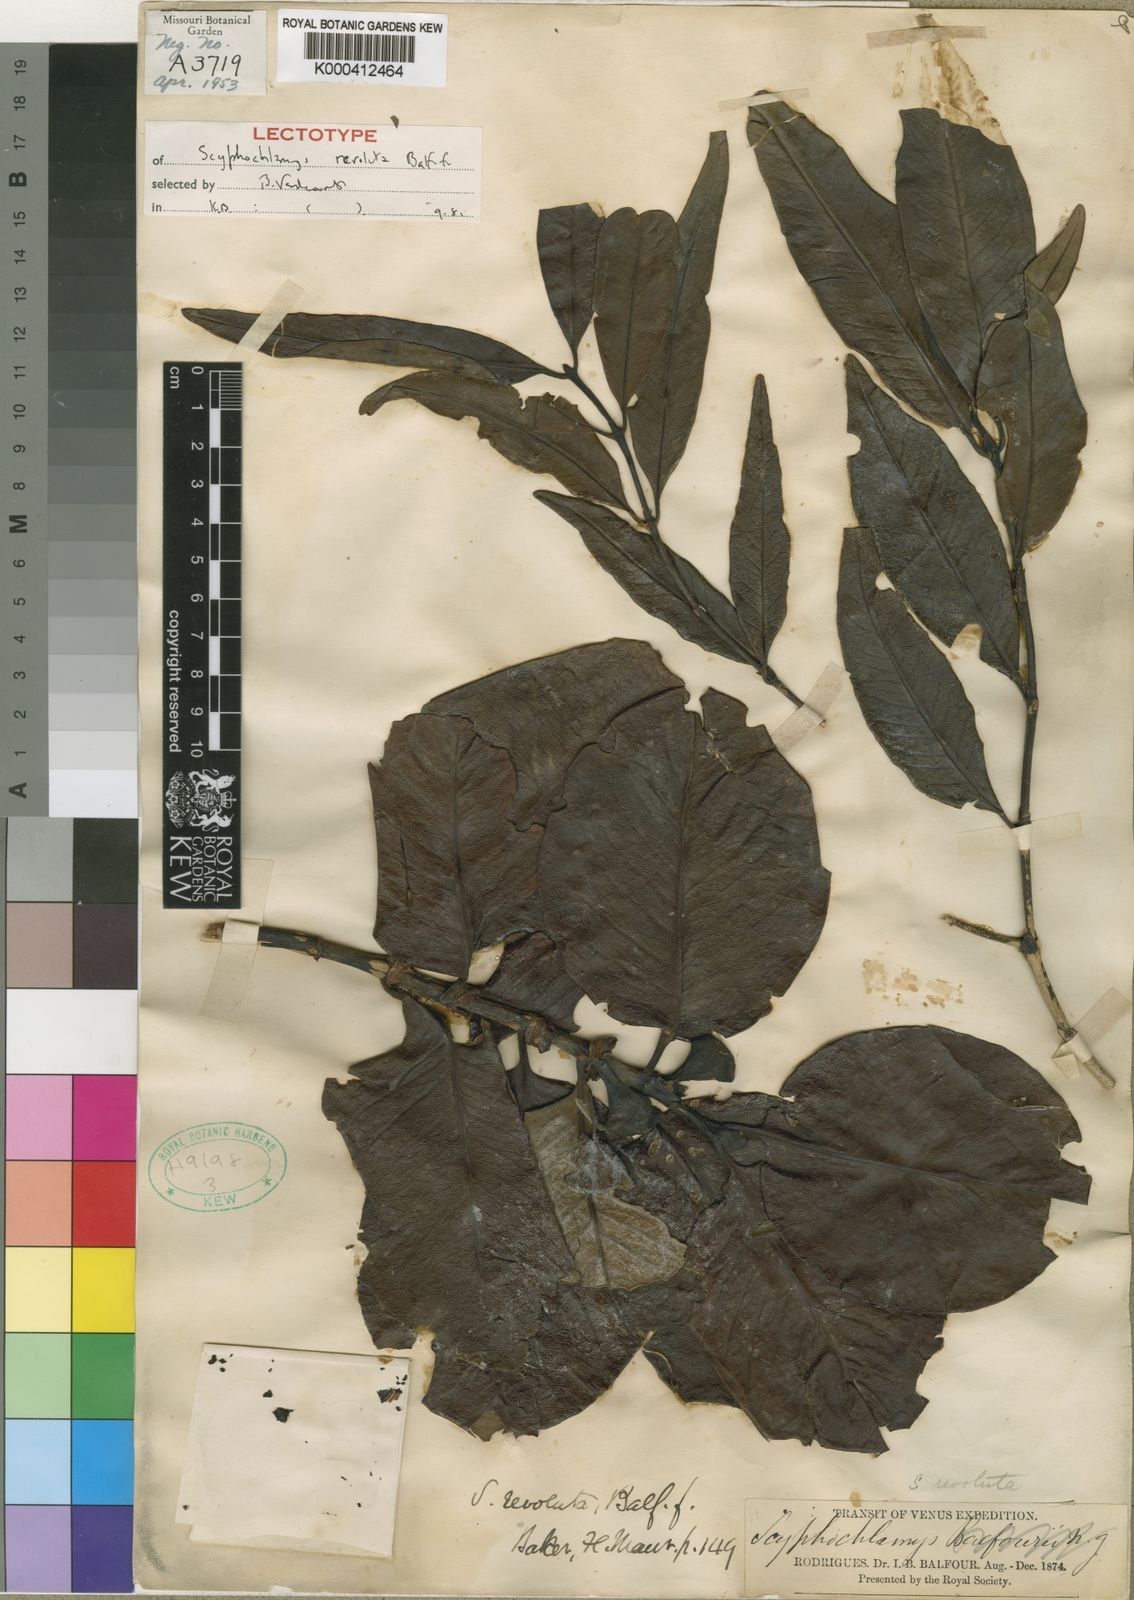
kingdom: Plantae
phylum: Tracheophyta
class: Magnoliopsida
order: Gentianales
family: Rubiaceae
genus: Pyrostria
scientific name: Pyrostria revoluta
